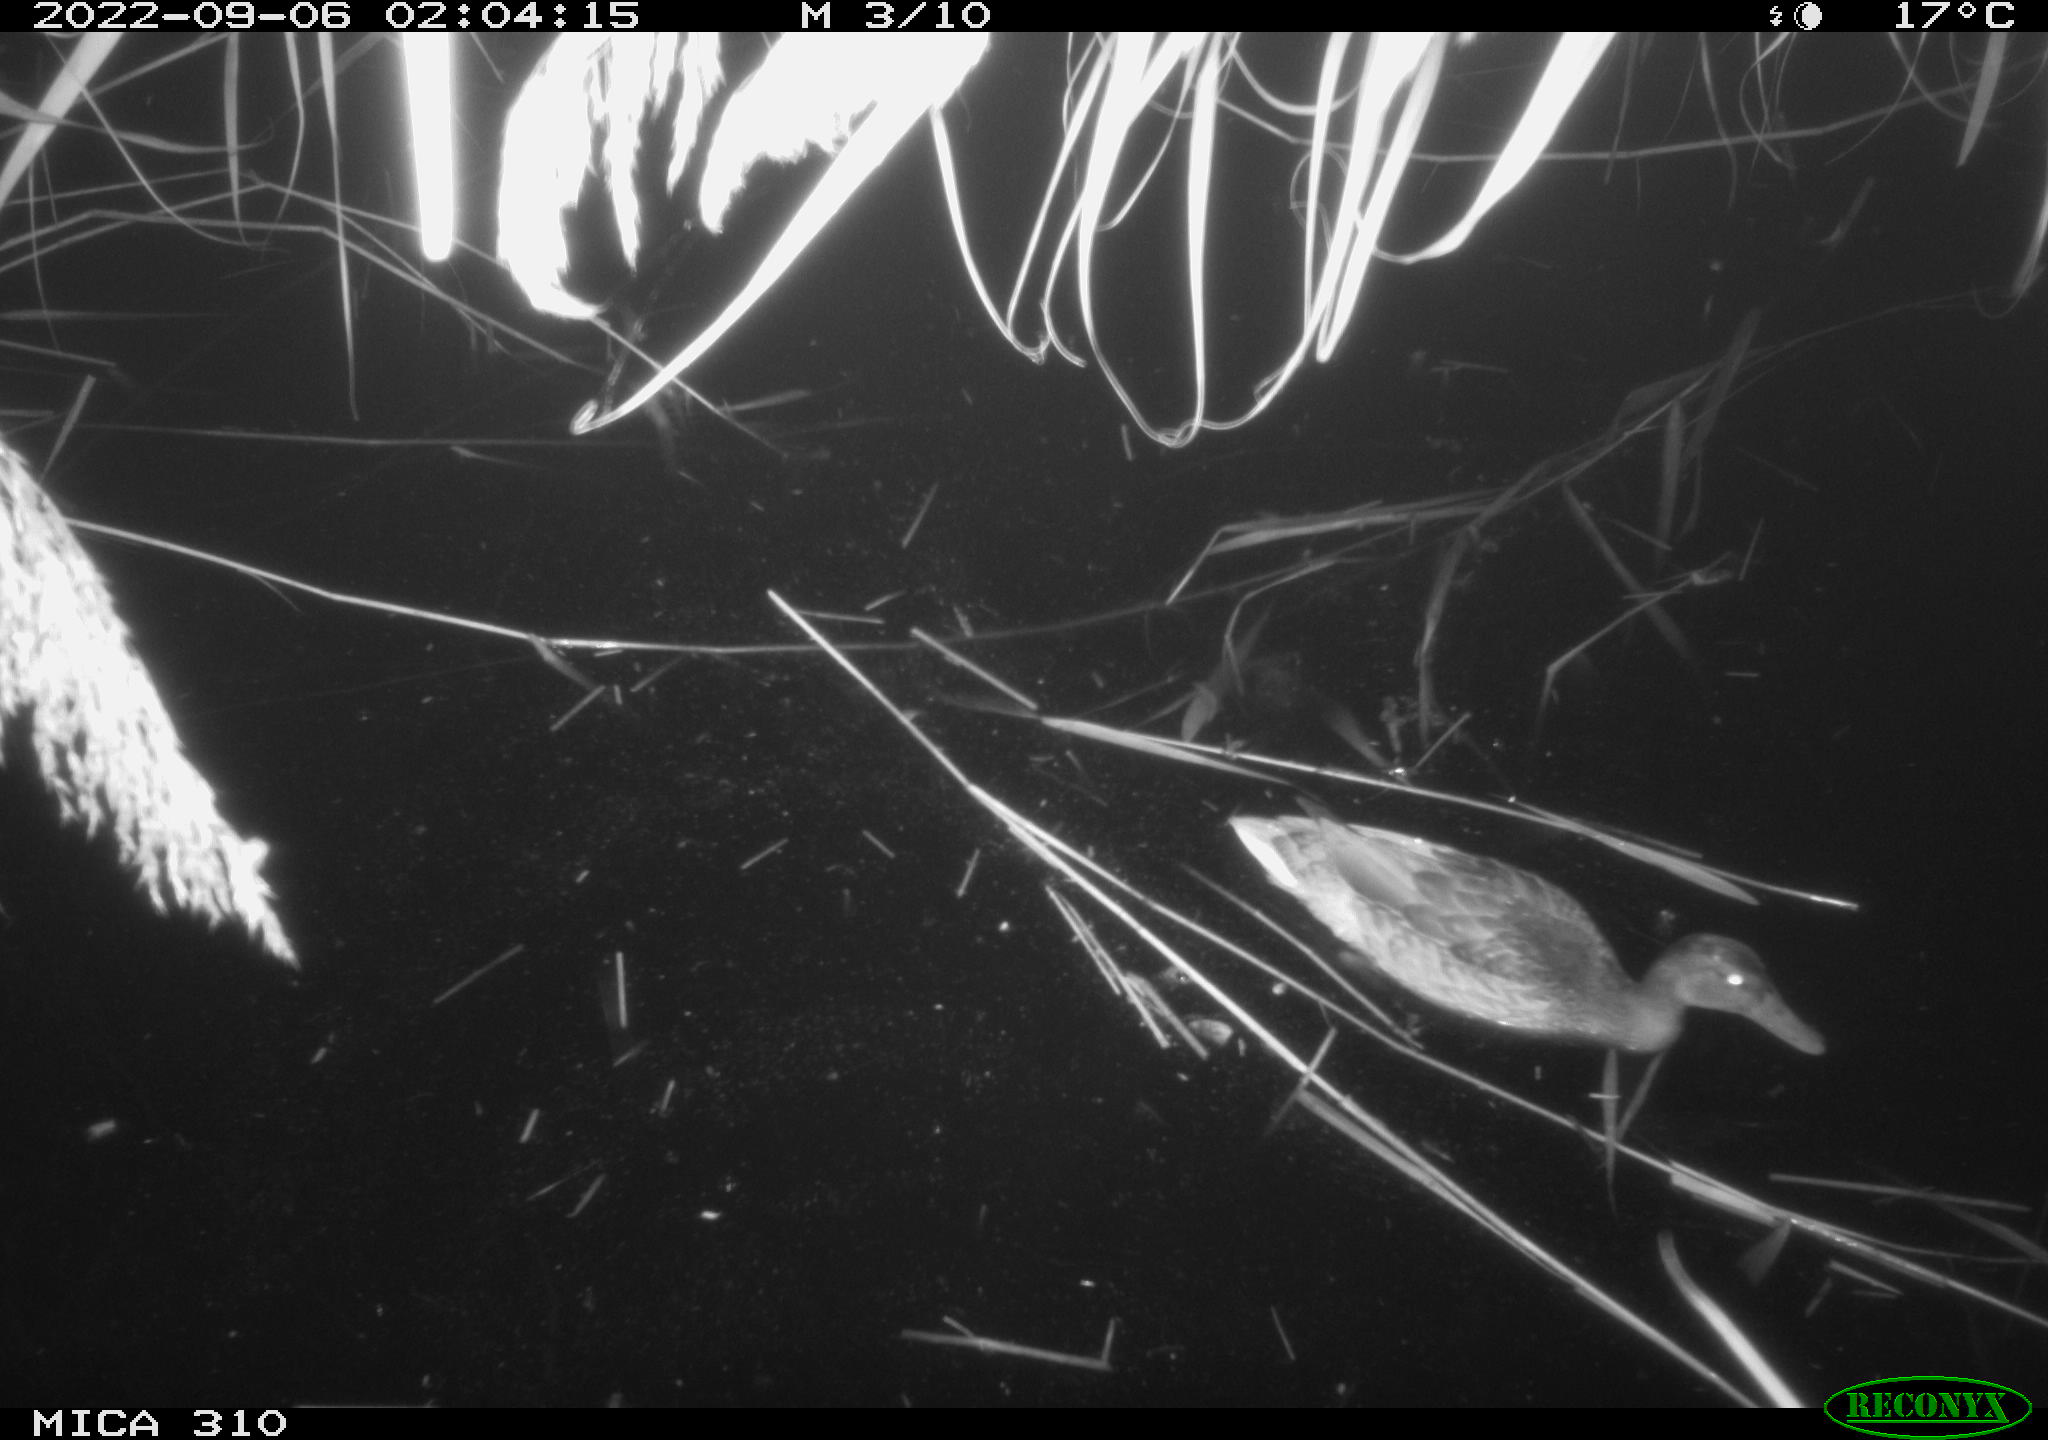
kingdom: Animalia
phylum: Chordata
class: Aves
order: Anseriformes
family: Anatidae
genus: Anas
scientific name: Anas
